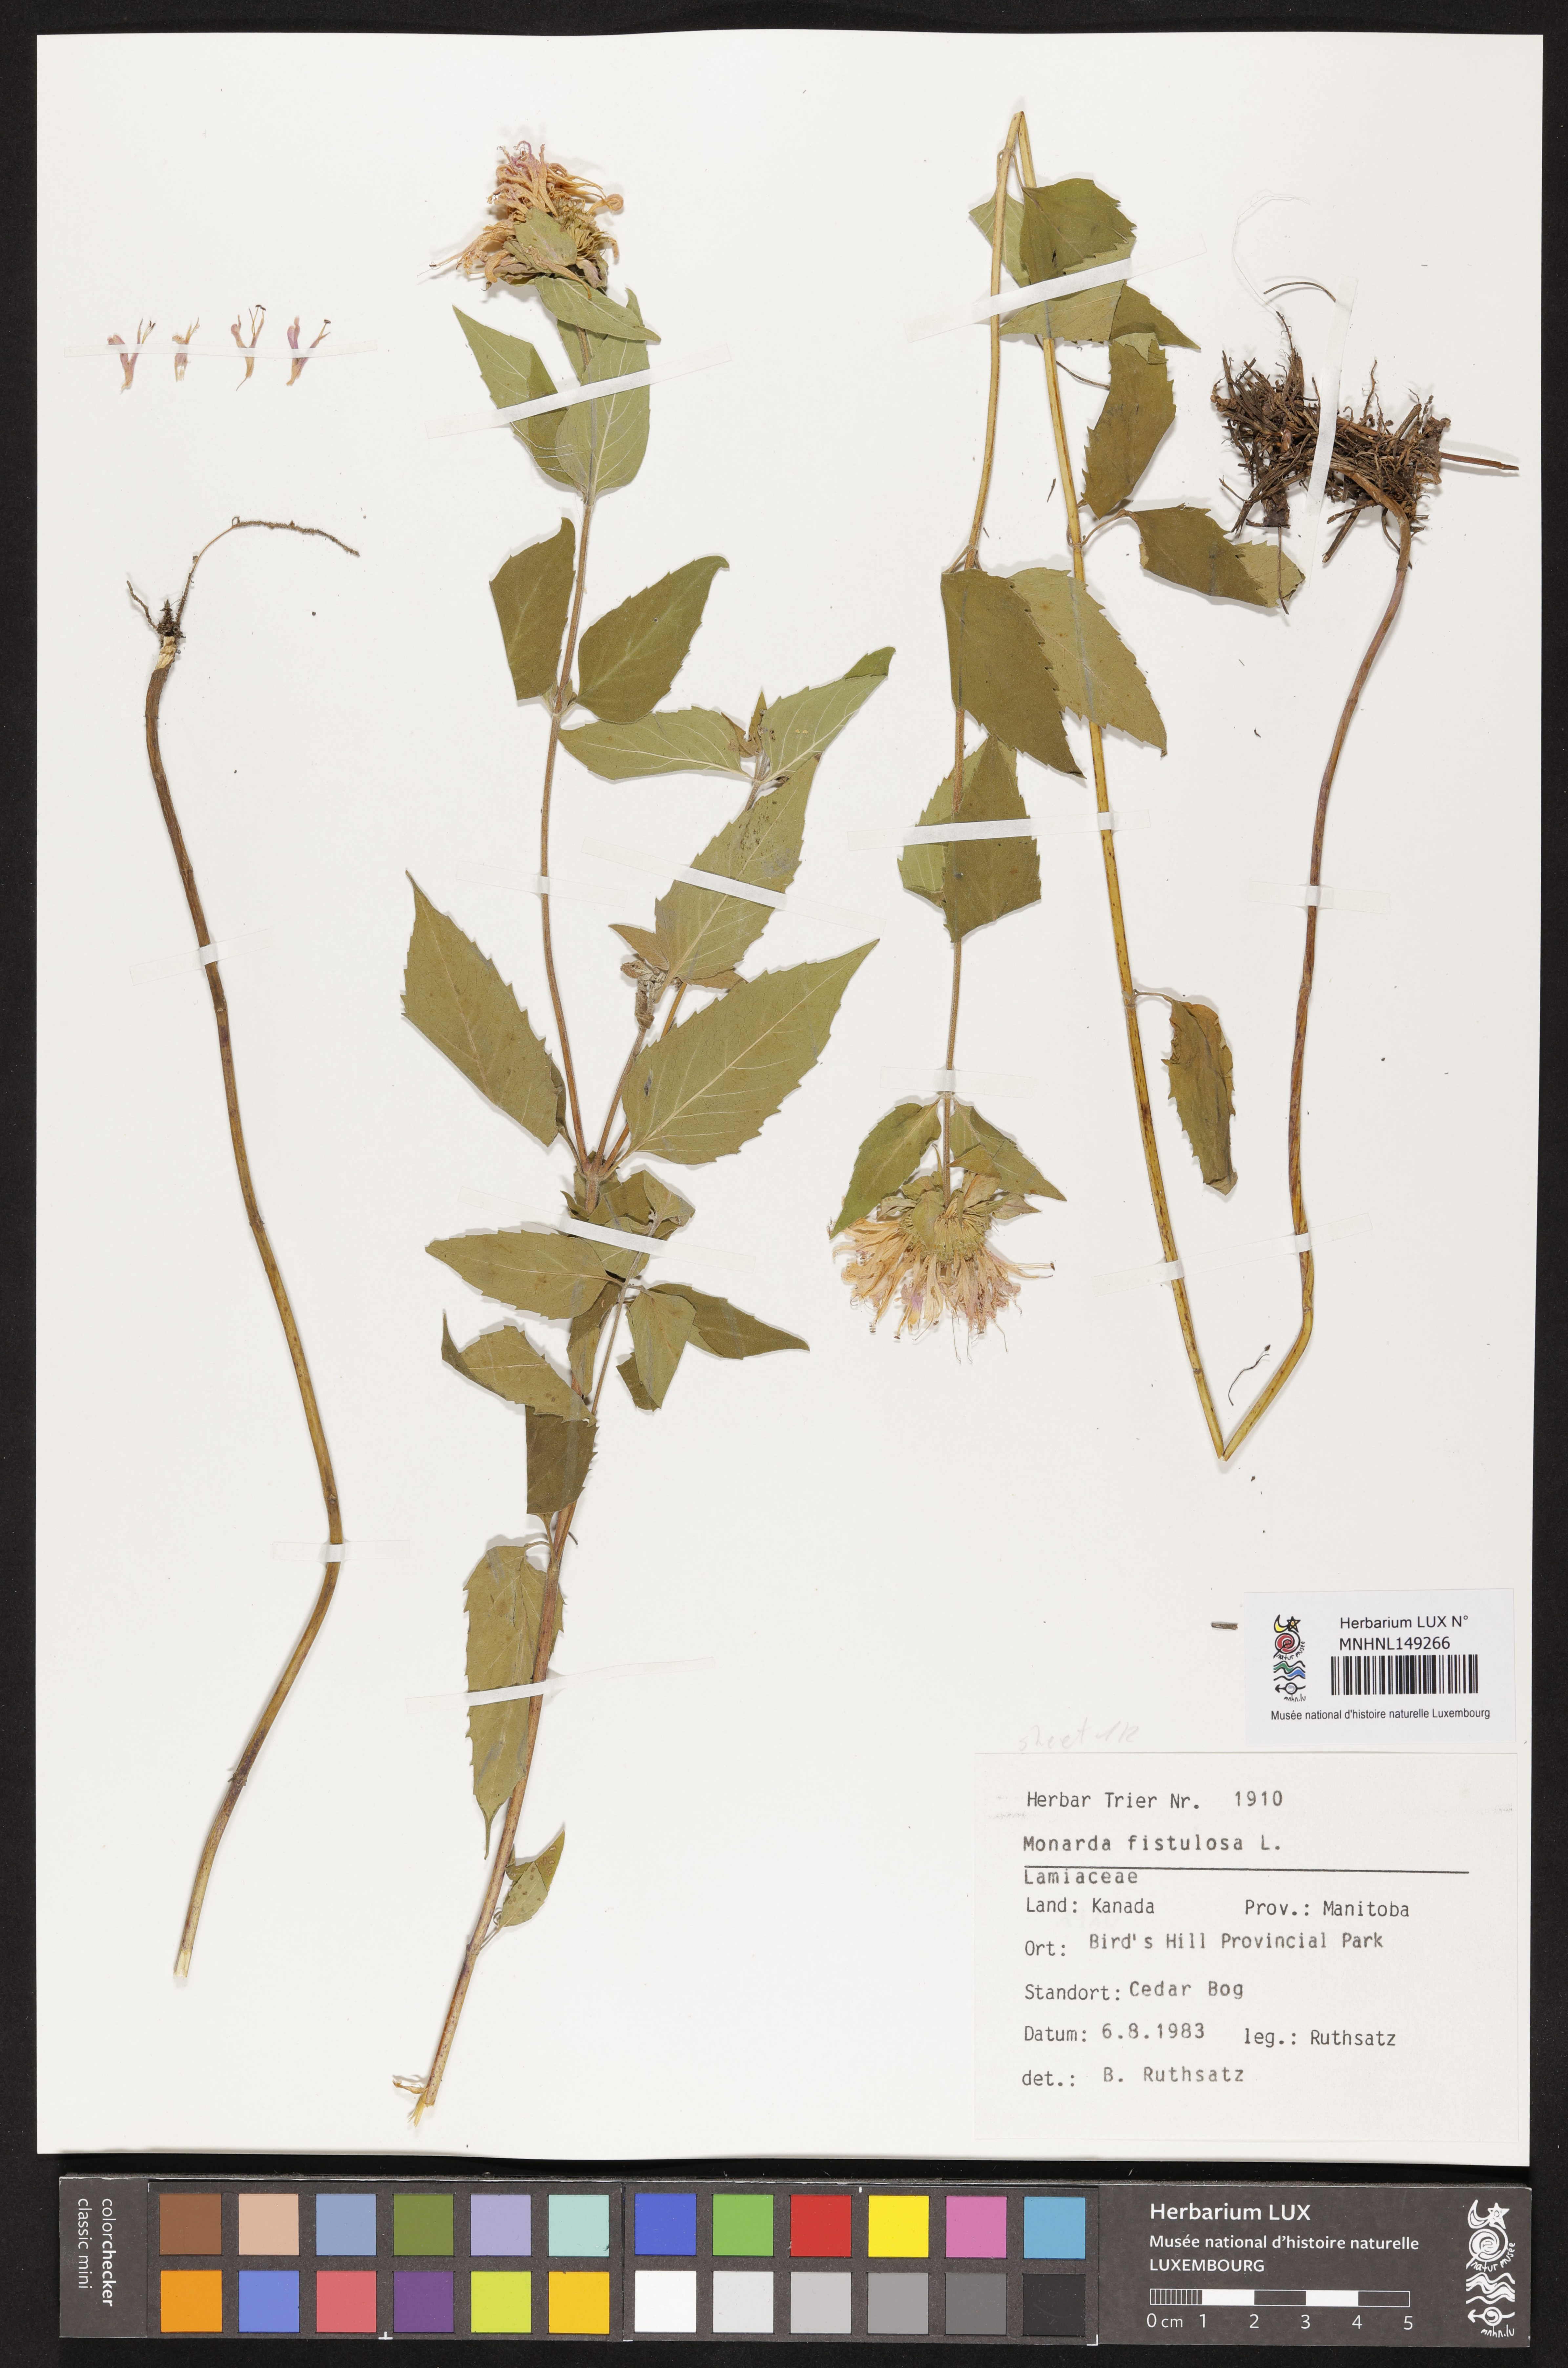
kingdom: Plantae
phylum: Tracheophyta
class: Magnoliopsida
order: Lamiales
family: Lamiaceae
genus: Monarda
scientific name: Monarda fistulosa
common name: Purple beebalm
